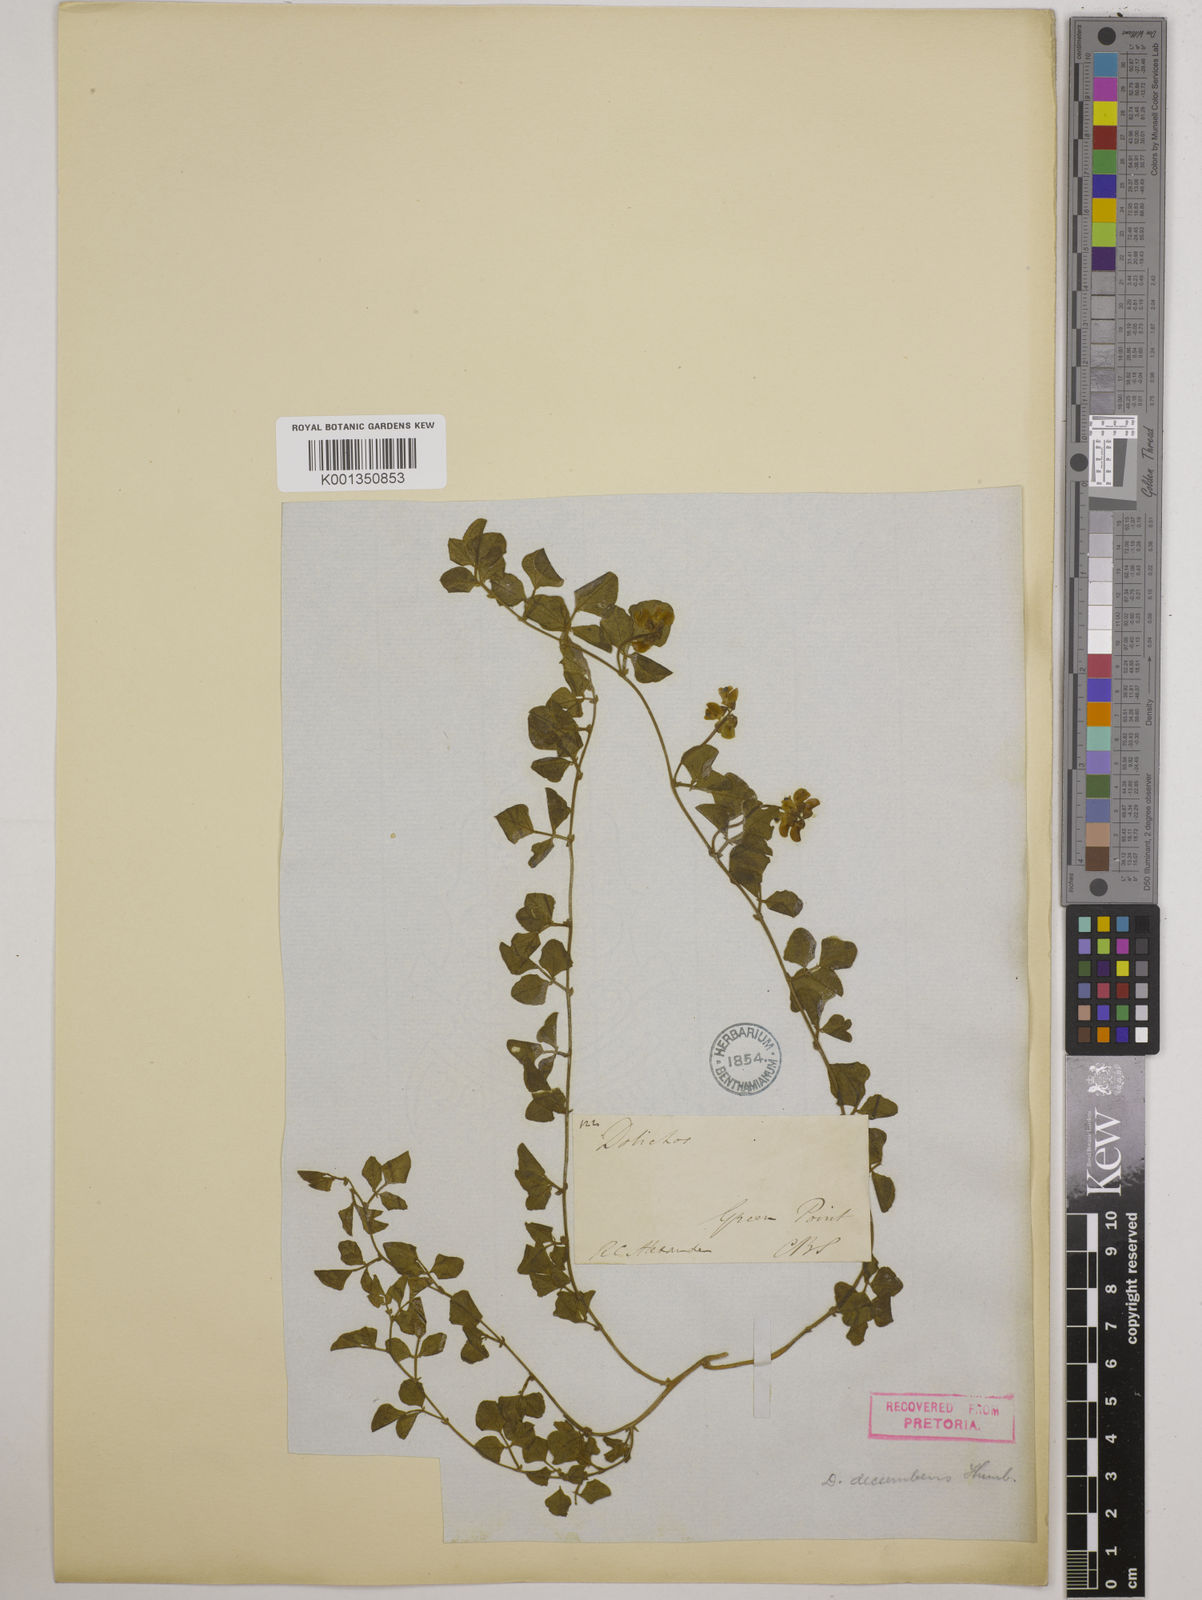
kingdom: Plantae
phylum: Tracheophyta
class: Magnoliopsida
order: Fabales
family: Fabaceae
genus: Dolichos
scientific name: Dolichos decumbens
